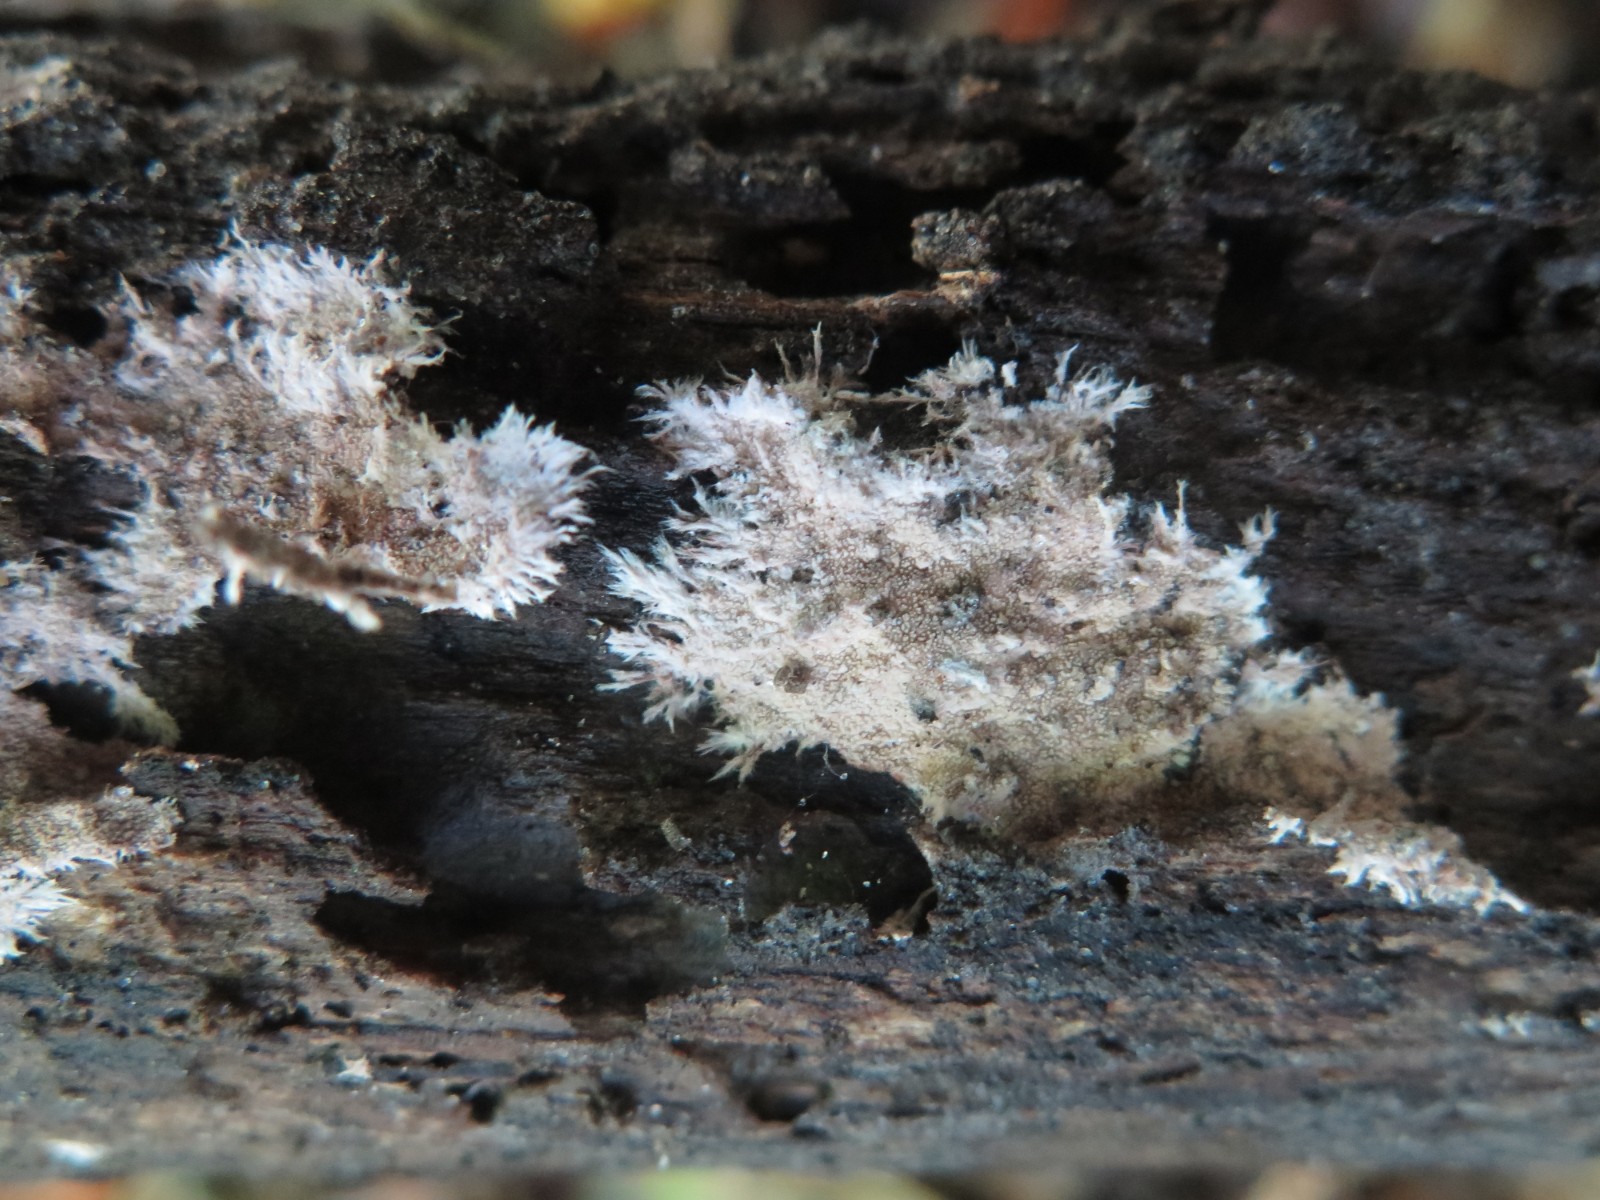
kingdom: Fungi
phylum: Basidiomycota
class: Agaricomycetes
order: Polyporales
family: Steccherinaceae
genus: Steccherinum
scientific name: Steccherinum fimbriatum
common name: trådet skønpig
